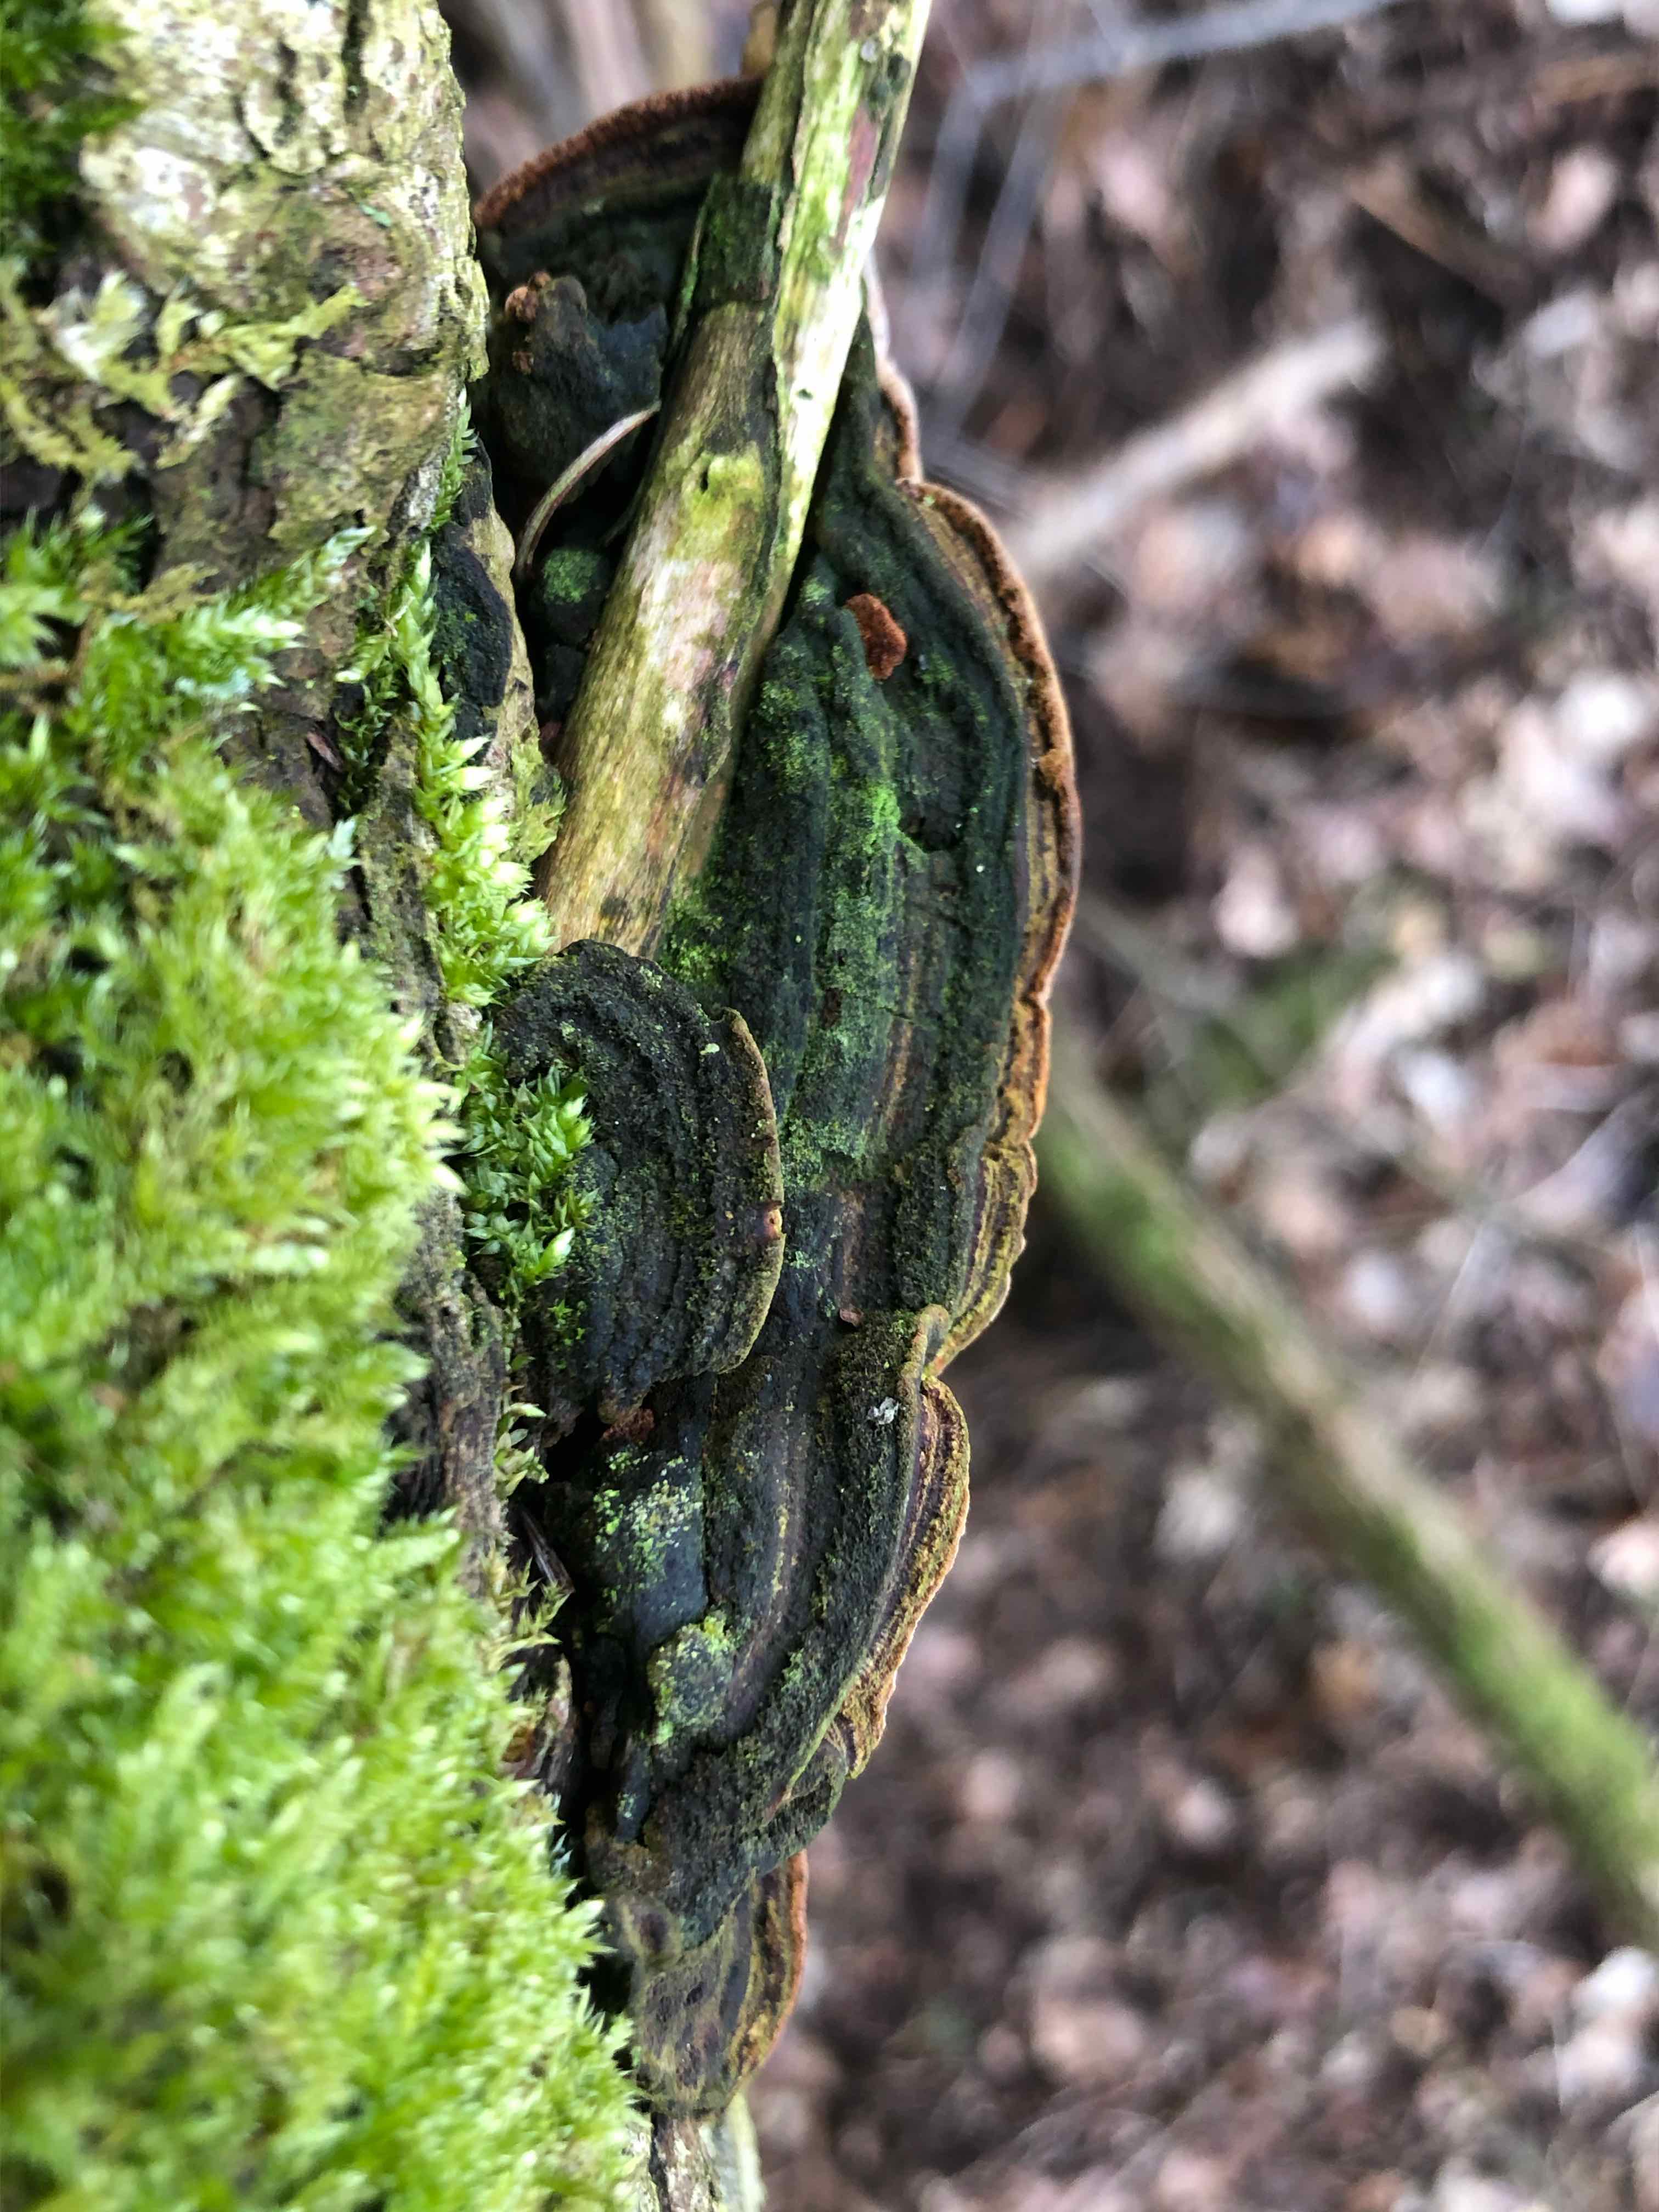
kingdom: Fungi
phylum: Basidiomycota
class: Agaricomycetes
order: Hymenochaetales
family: Hymenochaetaceae
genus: Phellinopsis
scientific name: Phellinopsis conchata
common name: pile-ildporesvamp
